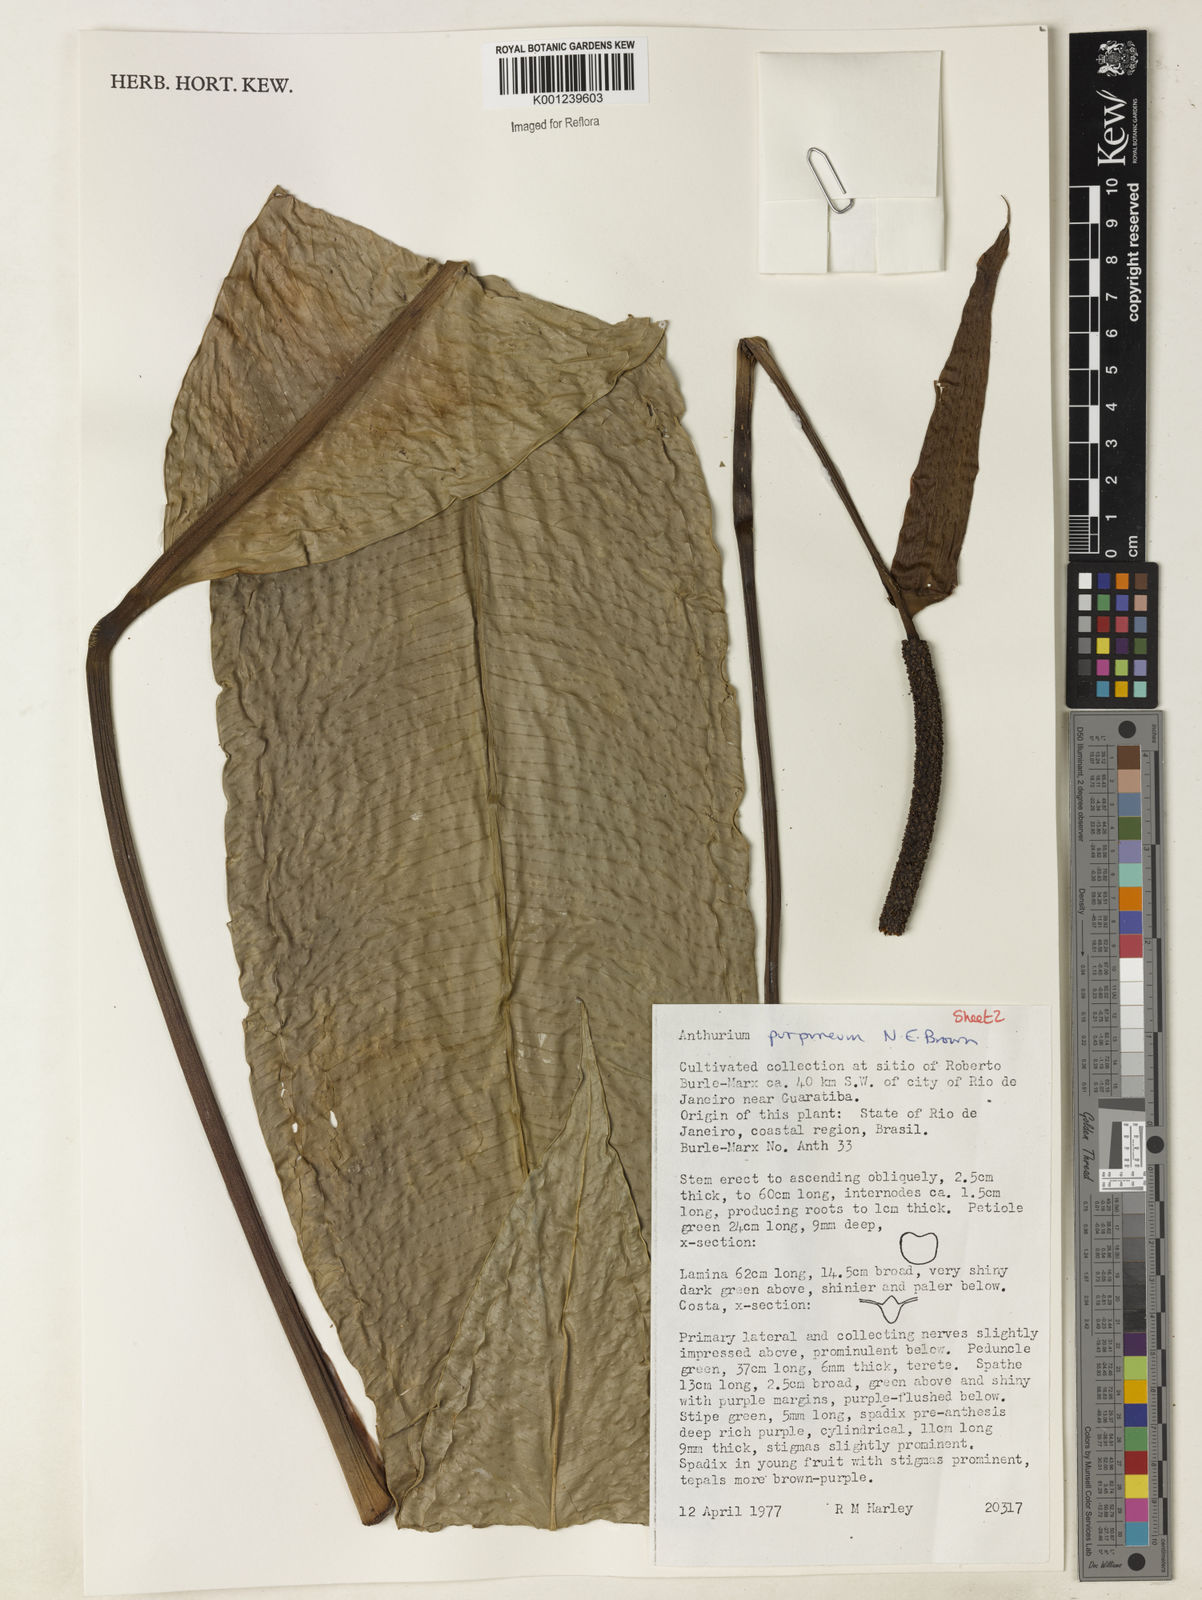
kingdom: Plantae
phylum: Tracheophyta
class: Liliopsida
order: Alismatales
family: Araceae
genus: Anthurium
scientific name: Anthurium purpureum
